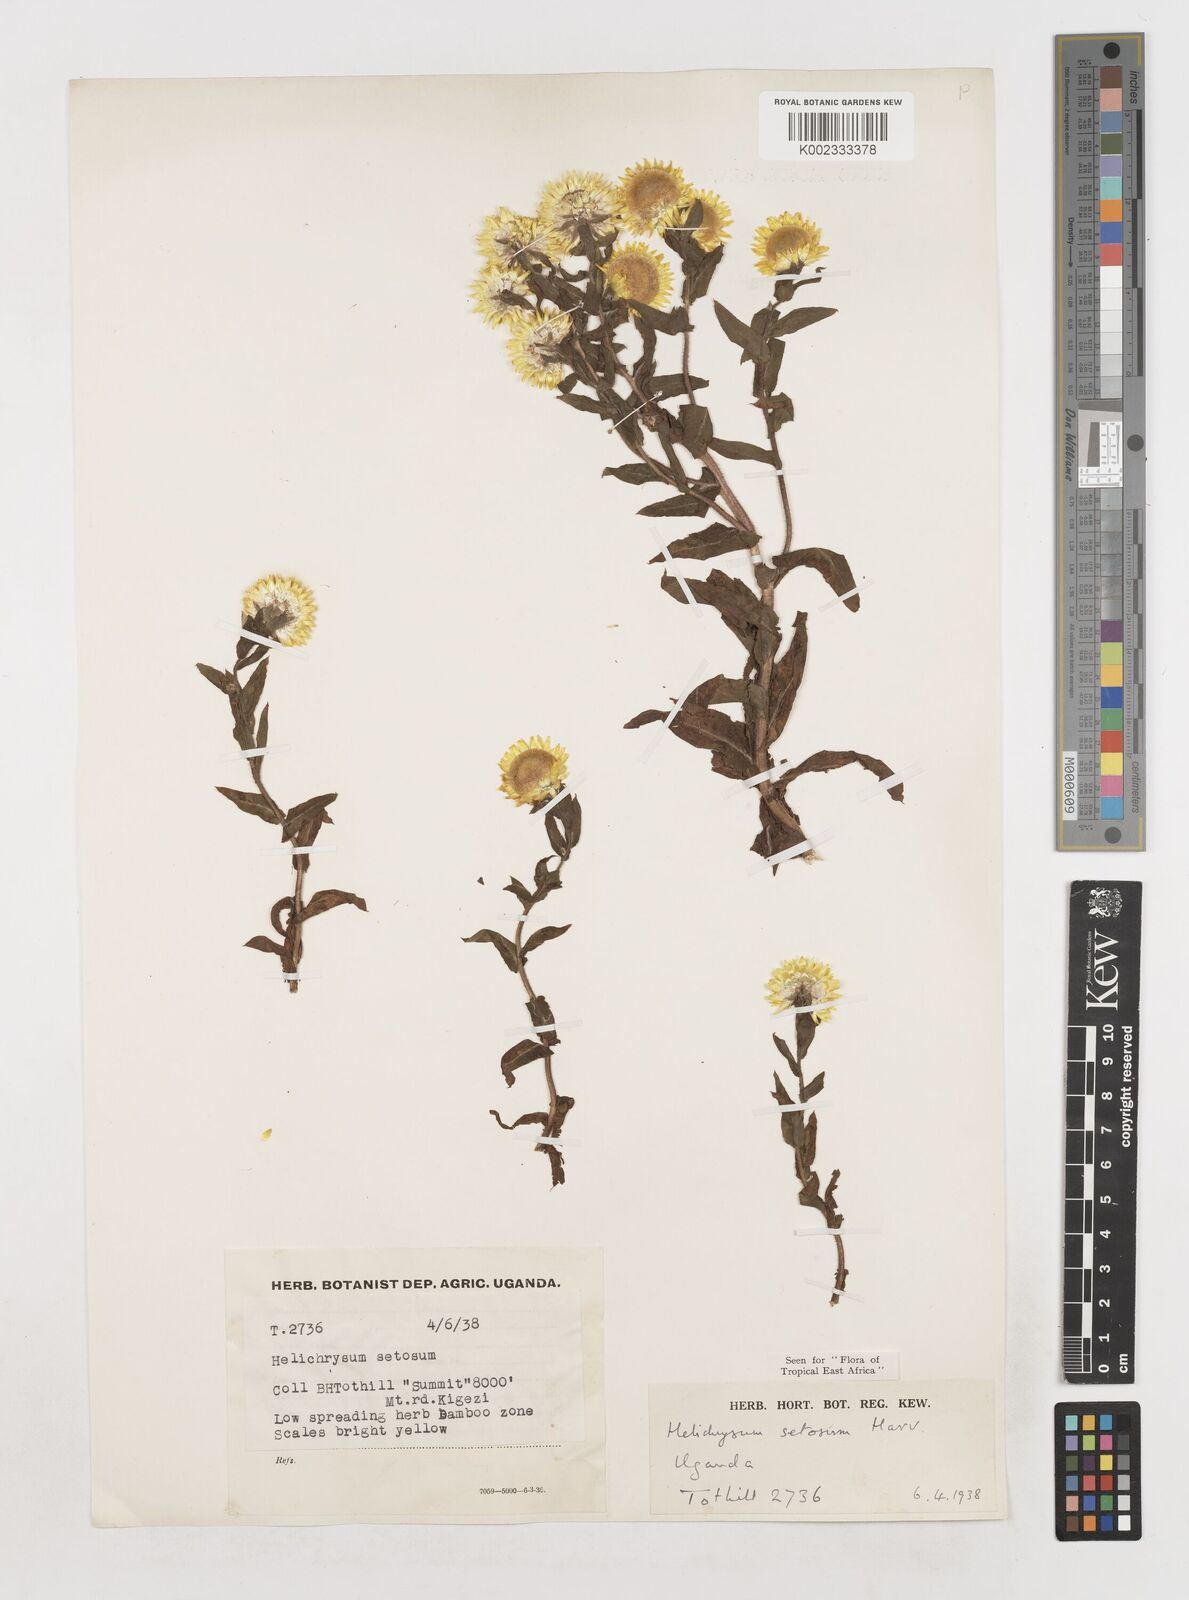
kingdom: Plantae
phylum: Tracheophyta
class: Magnoliopsida
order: Asterales
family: Asteraceae
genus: Helichrysum
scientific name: Helichrysum setosum
